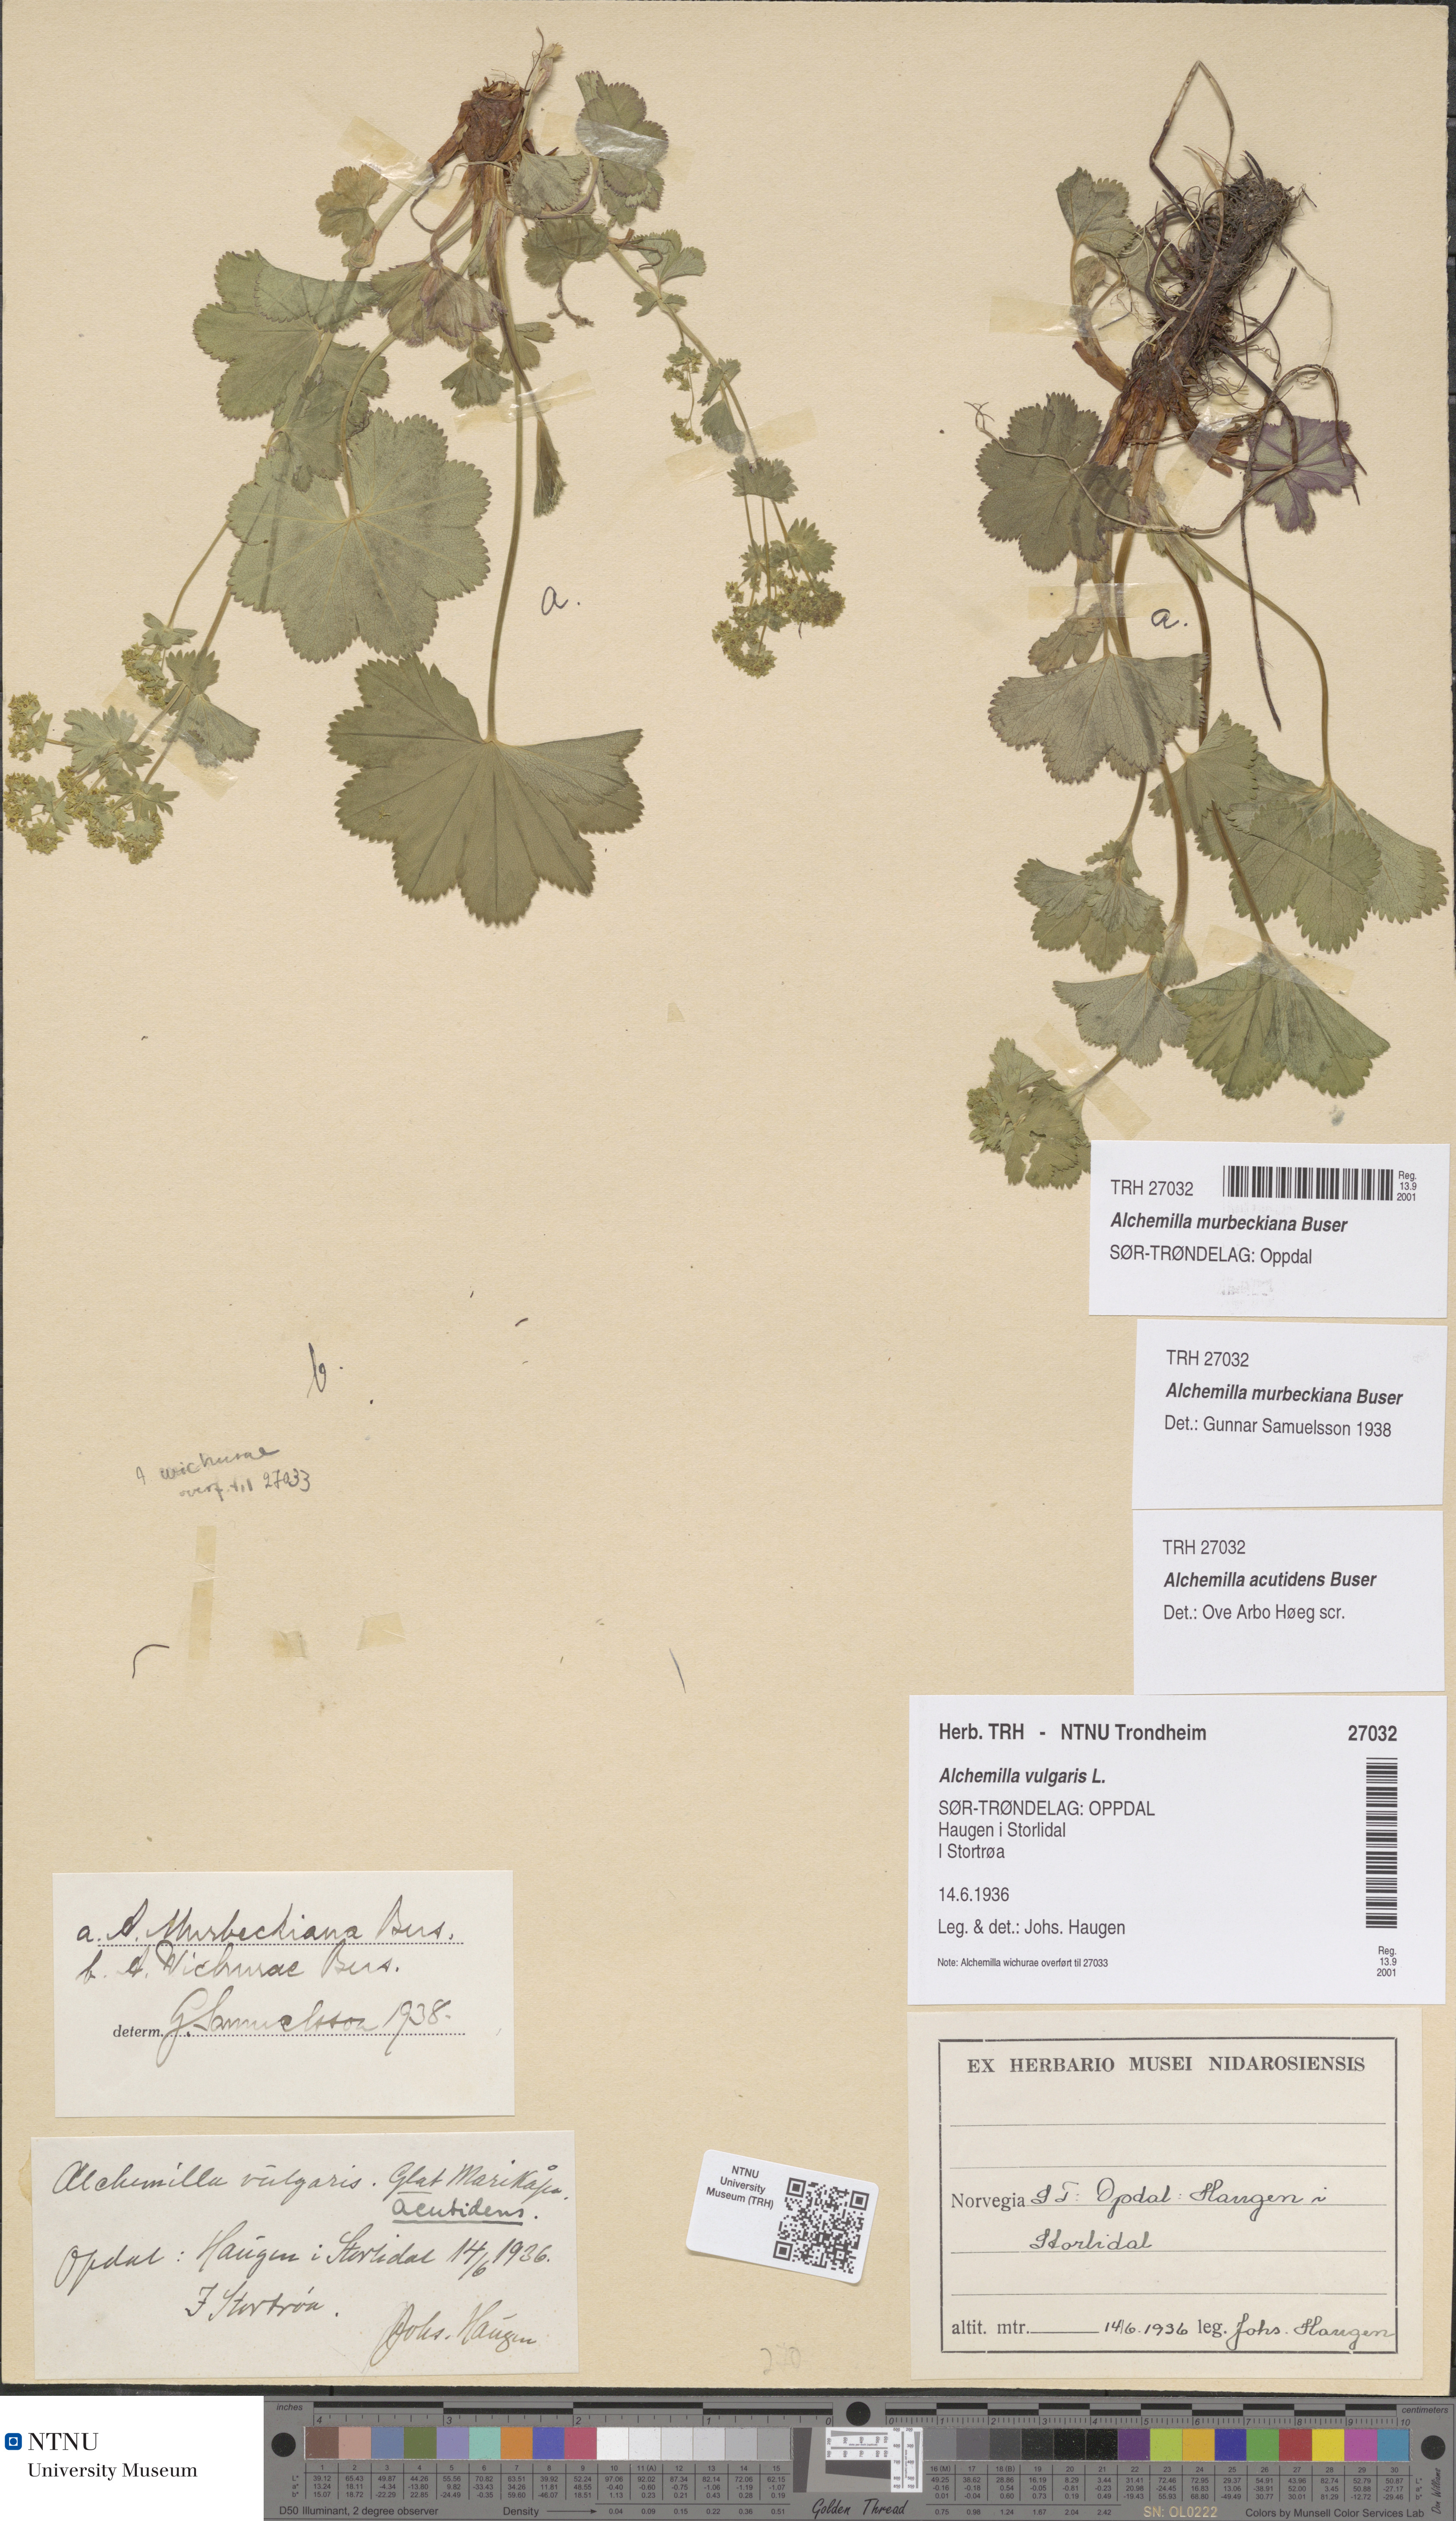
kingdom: Plantae
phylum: Tracheophyta
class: Magnoliopsida
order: Rosales
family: Rosaceae
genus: Alchemilla
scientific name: Alchemilla murbeckiana
